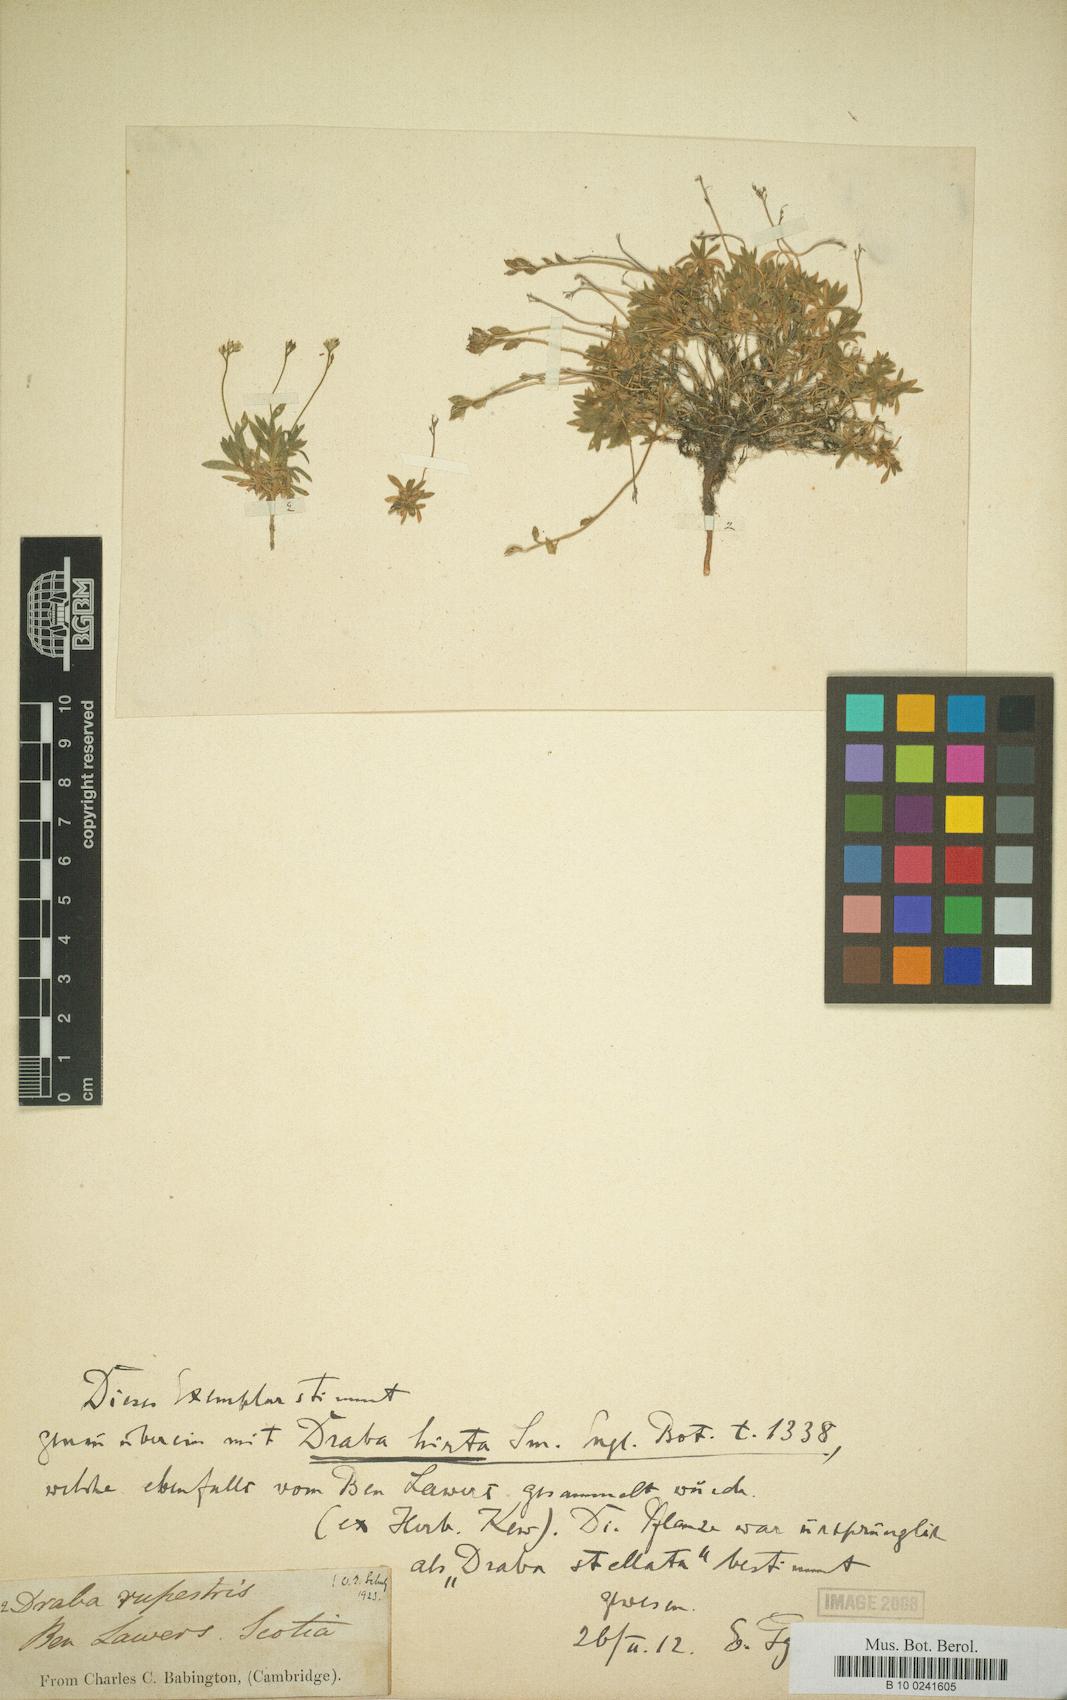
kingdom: Plantae
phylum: Tracheophyta
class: Magnoliopsida
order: Brassicales
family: Brassicaceae
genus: Draba
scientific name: Draba norvegica
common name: Rock whitlowgrass
